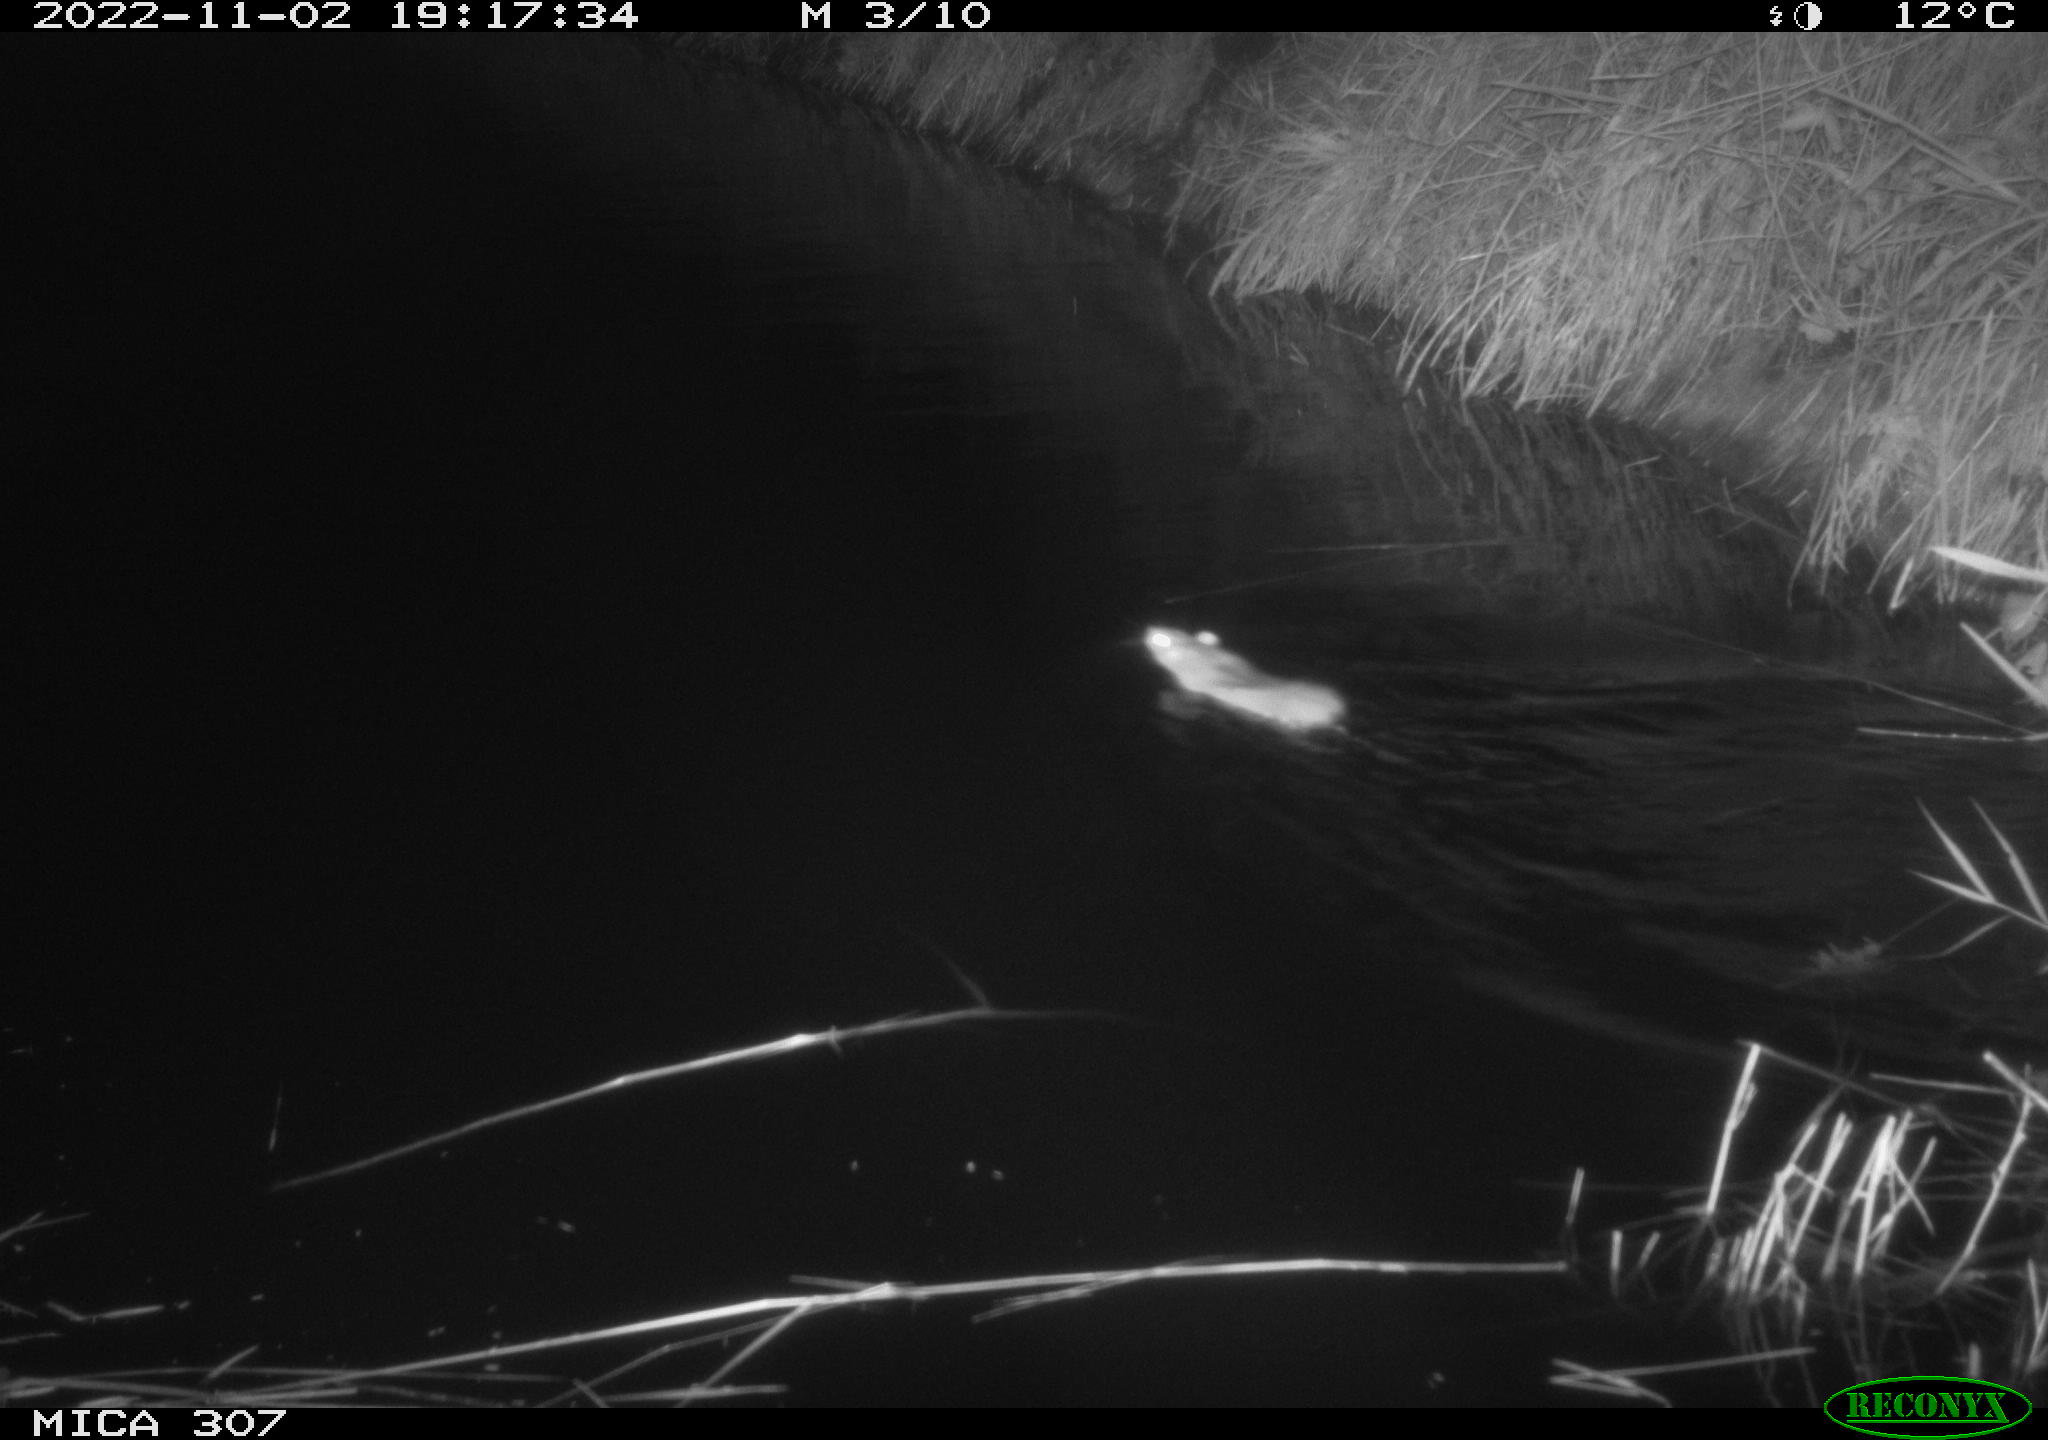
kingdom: Animalia
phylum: Chordata
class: Mammalia
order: Rodentia
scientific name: Rodentia
